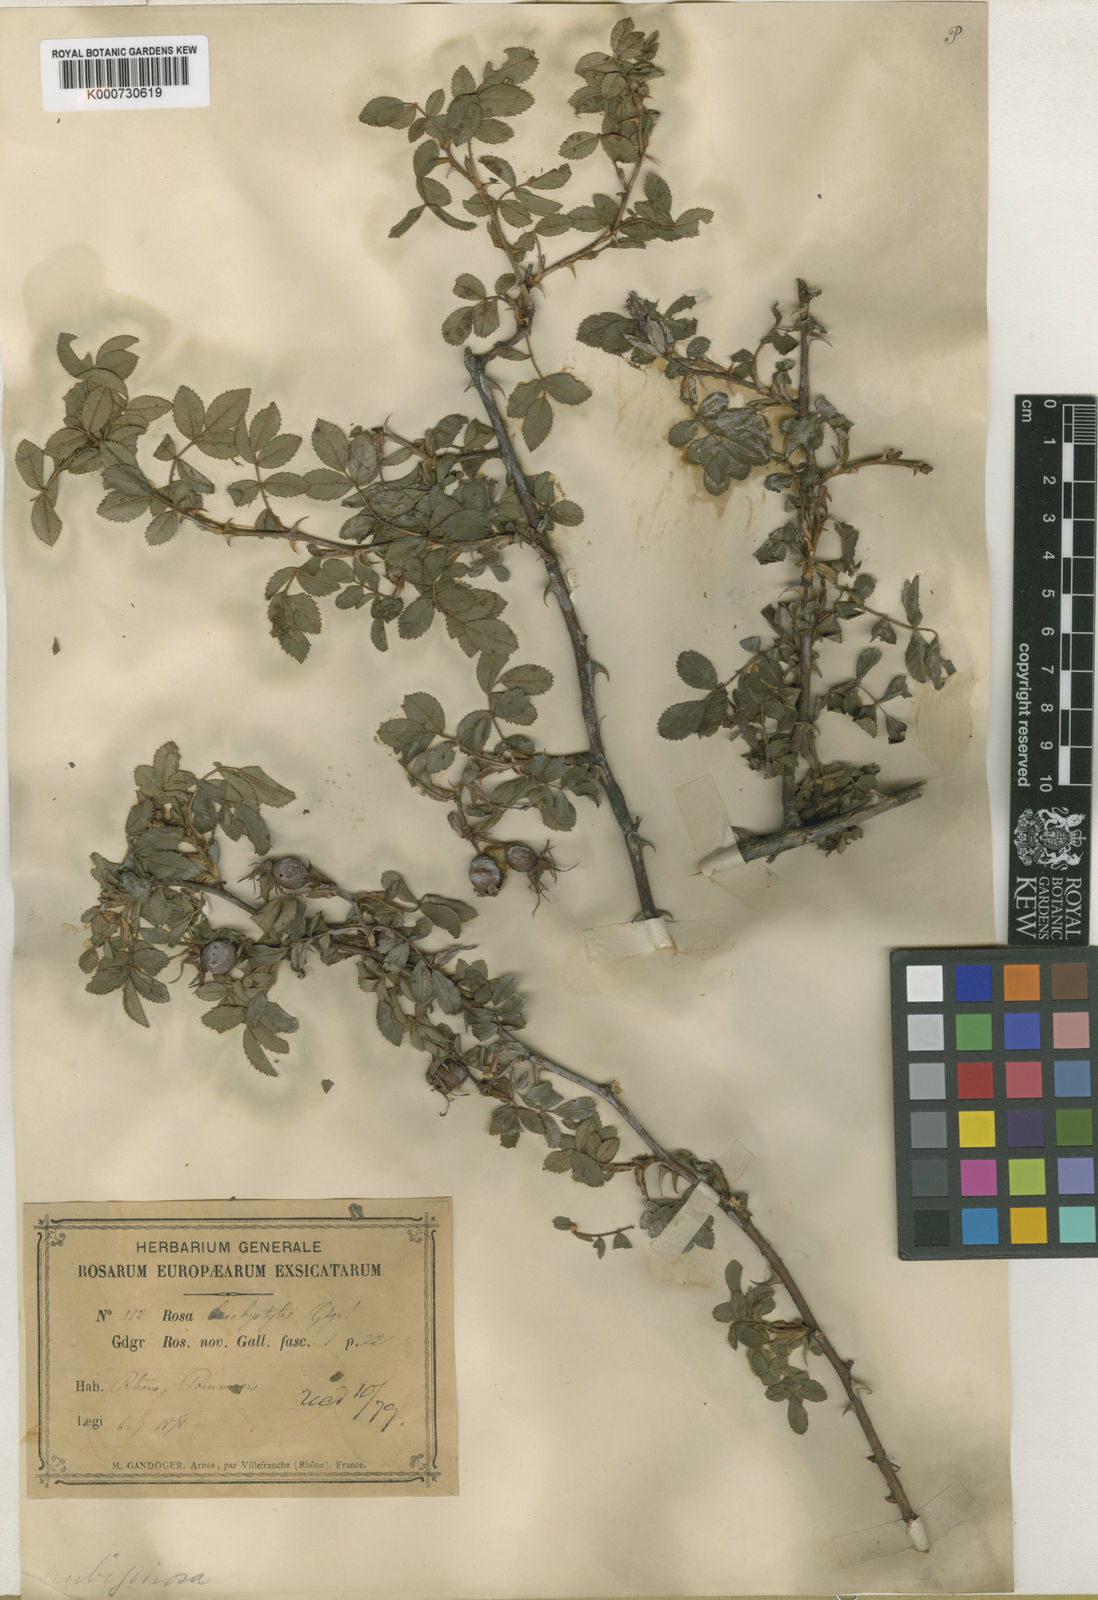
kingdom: Plantae
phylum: Tracheophyta
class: Magnoliopsida
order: Rosales
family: Rosaceae
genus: Rosa
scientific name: Rosa rubiginosa
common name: Sweet-briar
